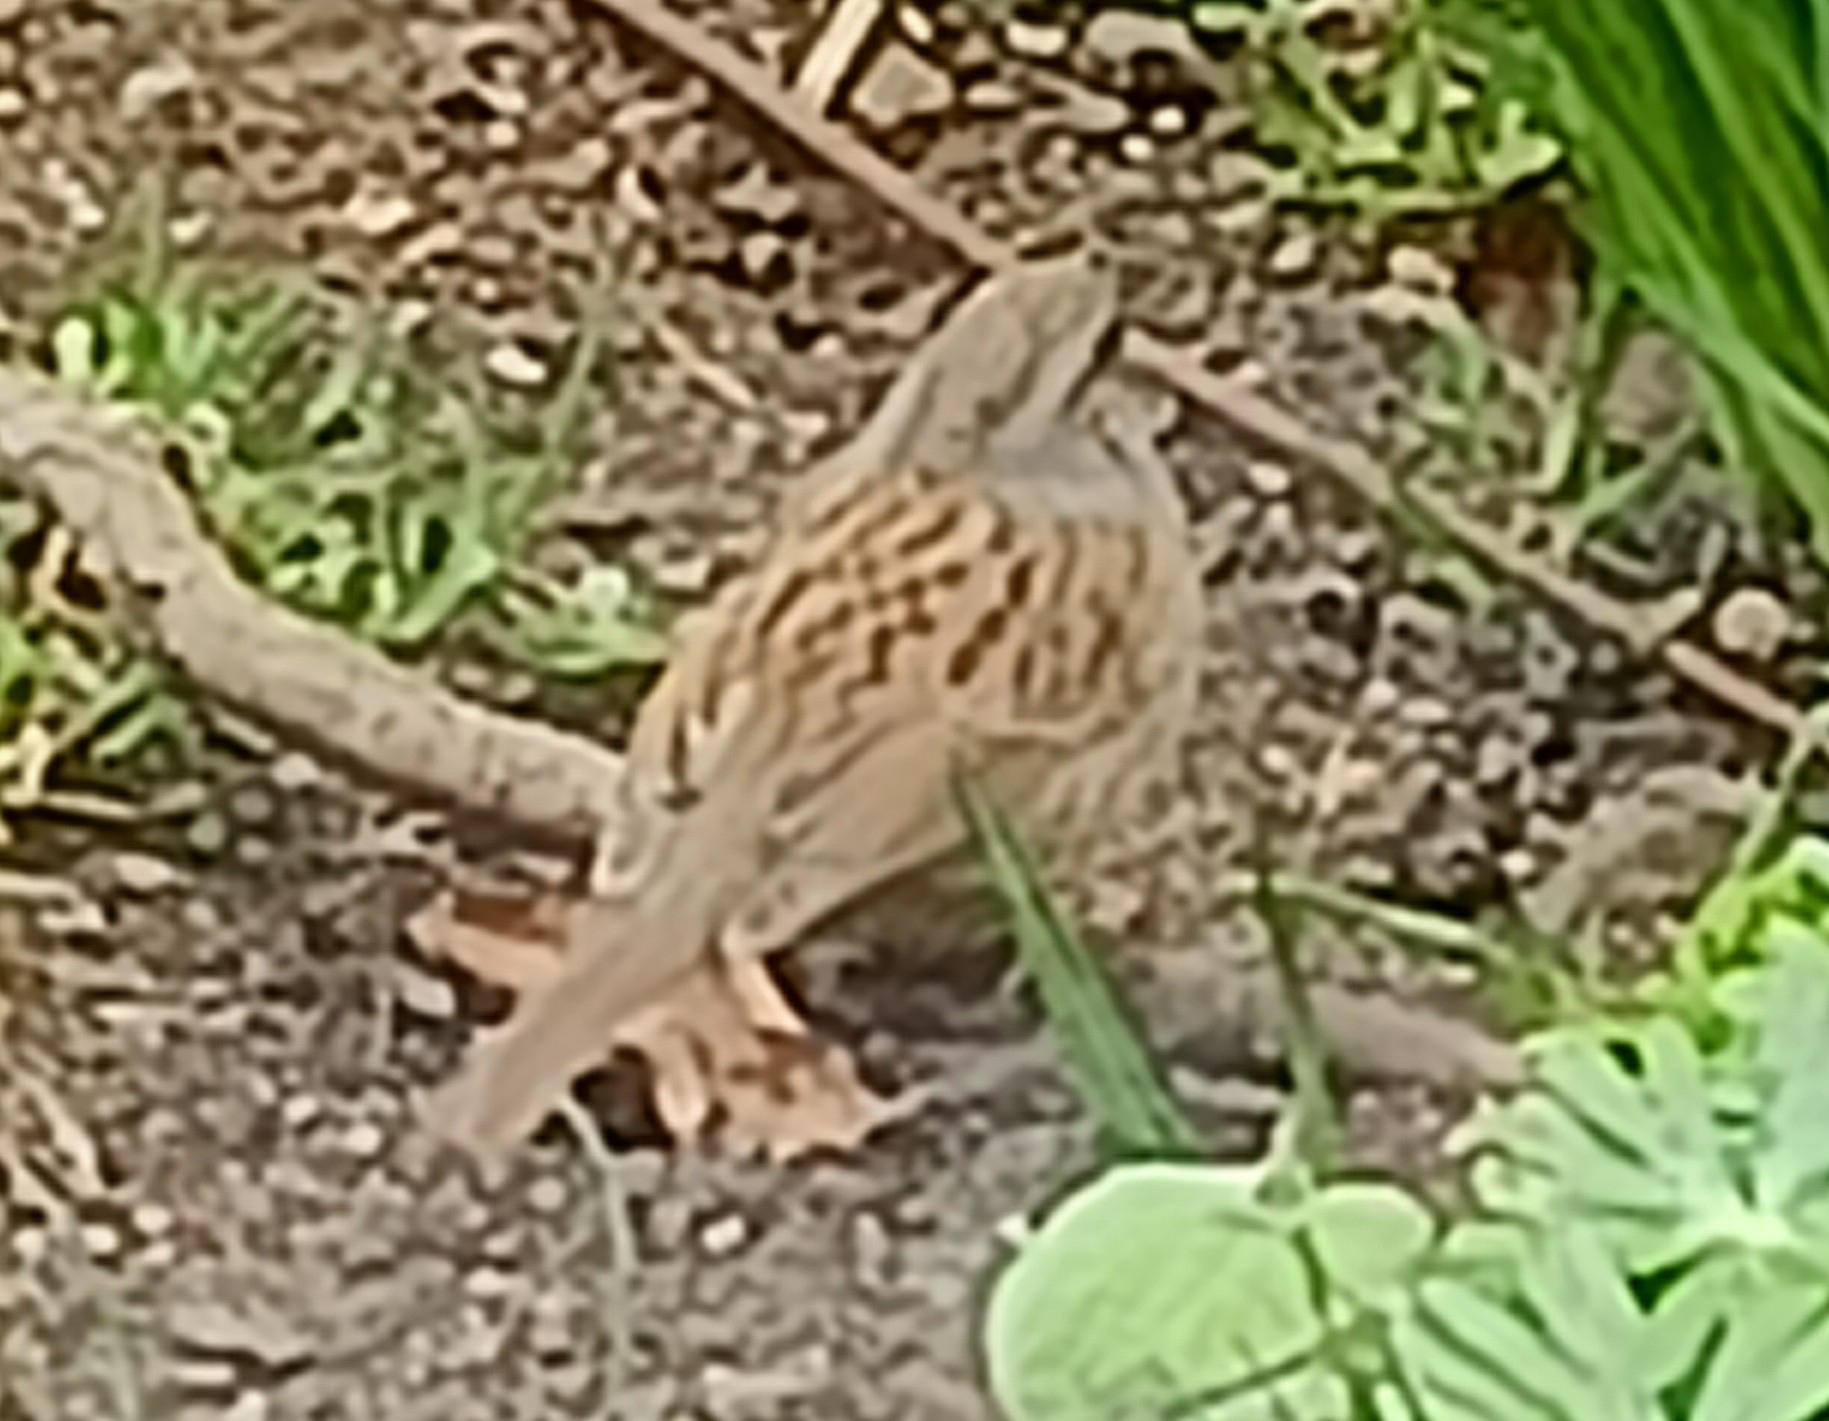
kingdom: Animalia
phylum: Chordata
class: Aves
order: Passeriformes
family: Prunellidae
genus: Prunella
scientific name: Prunella modularis
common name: Jernspurv
